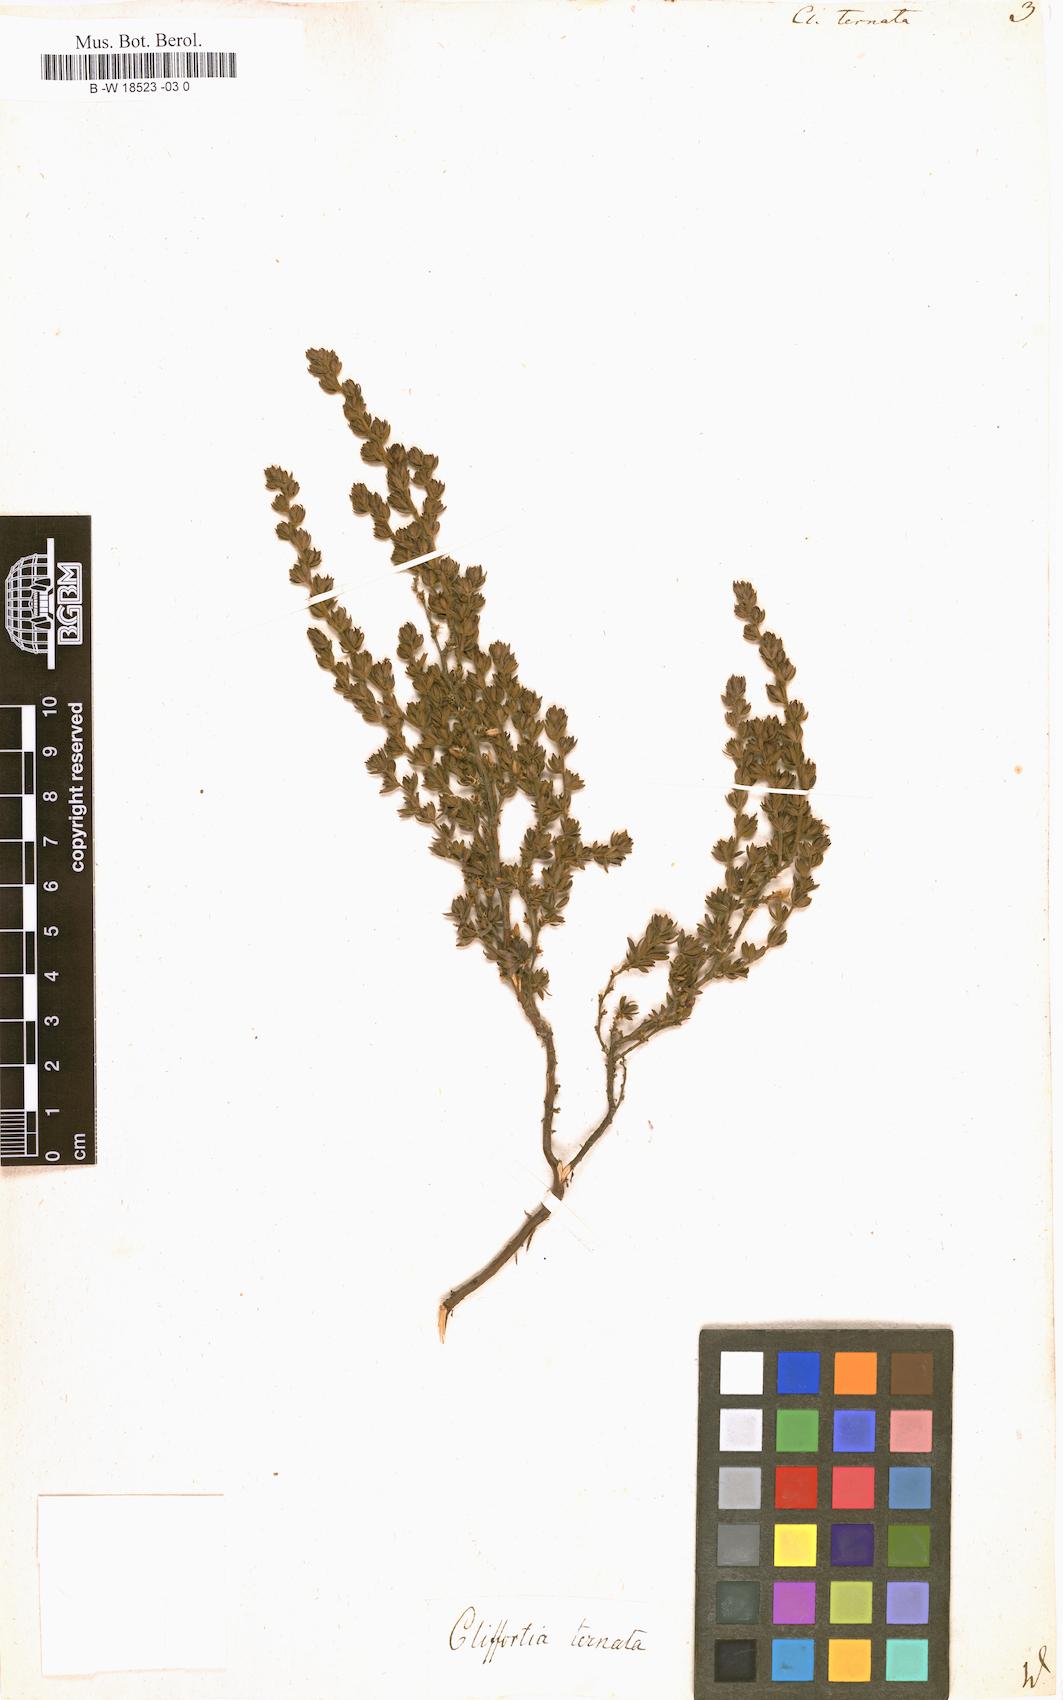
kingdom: Plantae
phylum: Tracheophyta
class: Magnoliopsida
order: Rosales
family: Rosaceae
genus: Cliffortia
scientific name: Cliffortia polygonifolia
